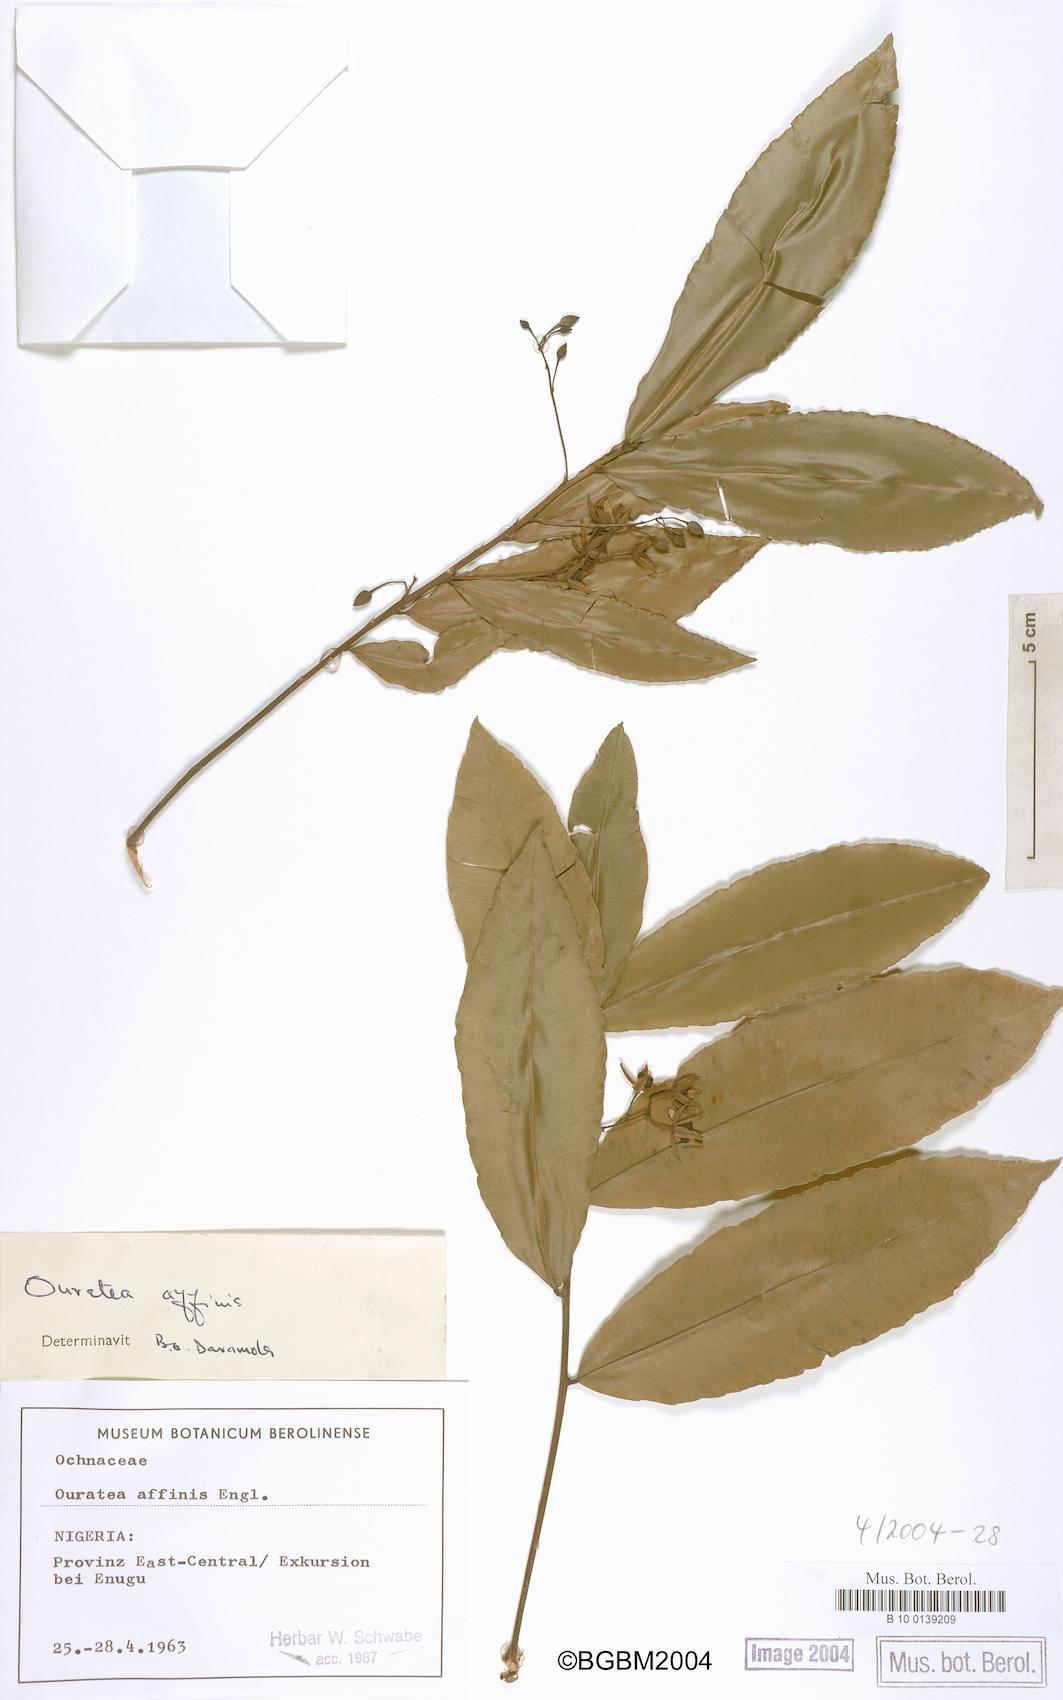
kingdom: Plantae
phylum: Tracheophyta
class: Magnoliopsida
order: Malpighiales
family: Ochnaceae
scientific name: Ochnaceae
